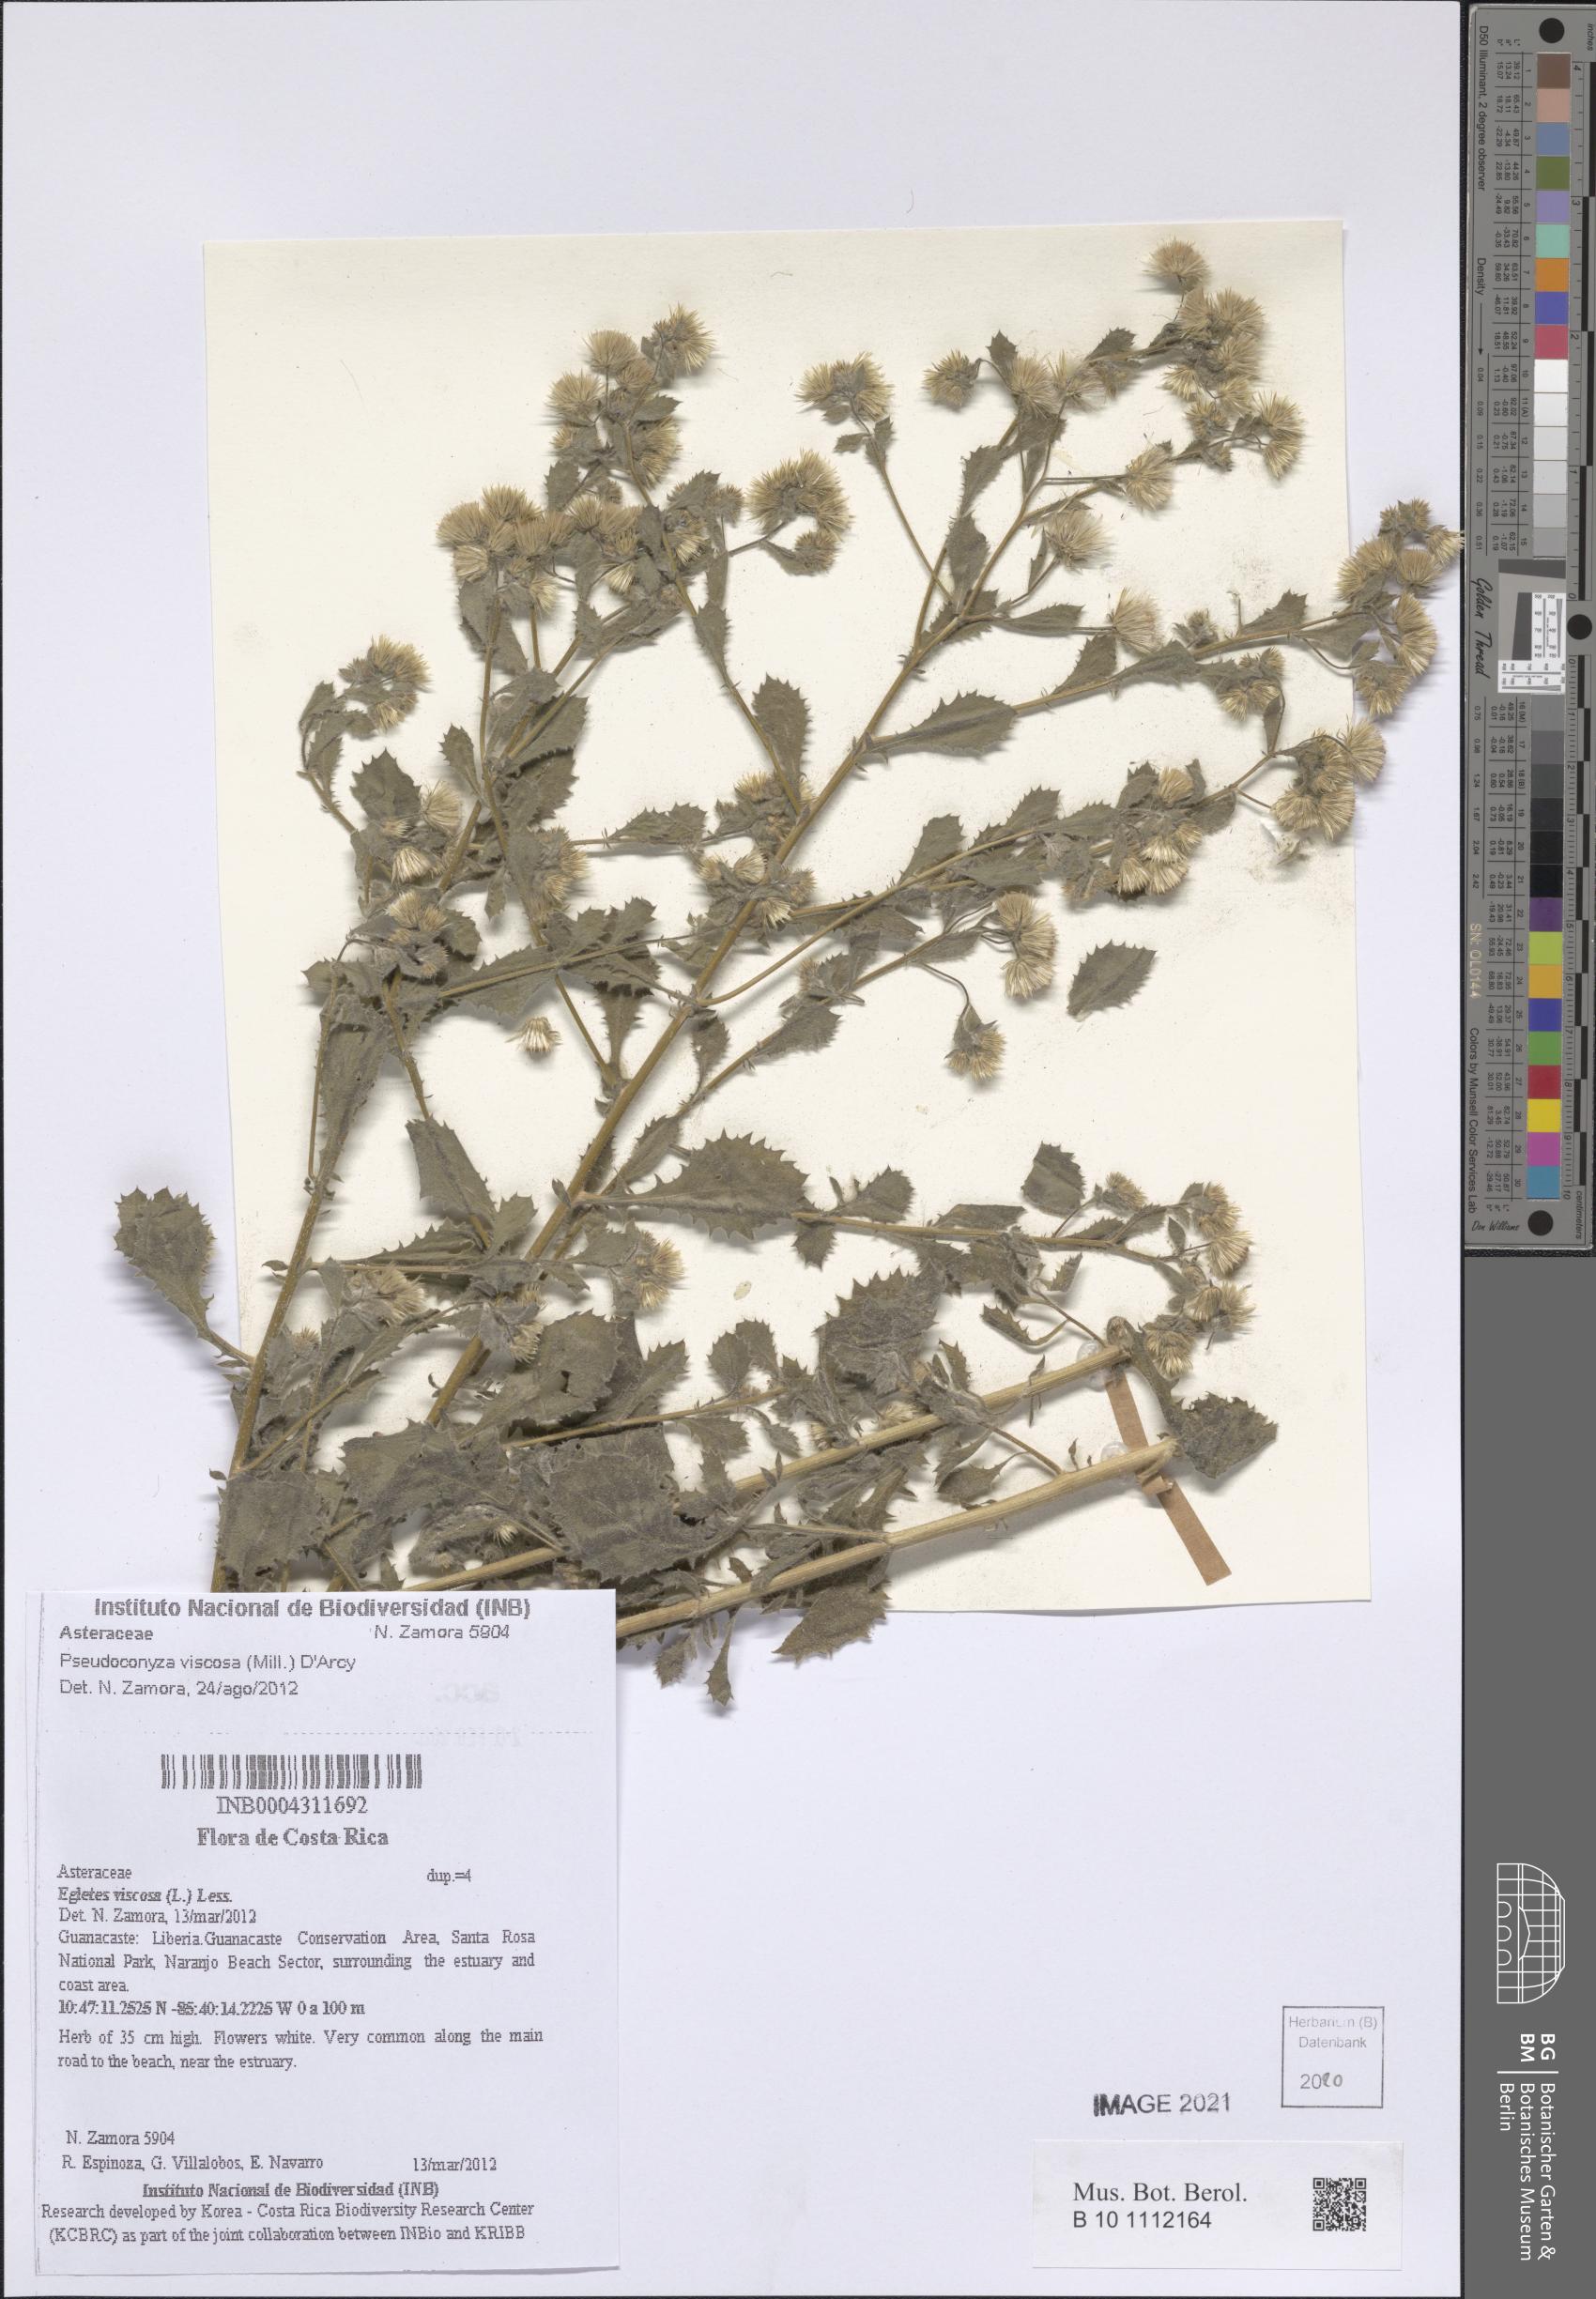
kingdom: Plantae
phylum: Tracheophyta
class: Magnoliopsida
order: Asterales
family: Asteraceae
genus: Pseudoconyza
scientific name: Pseudoconyza viscosa
